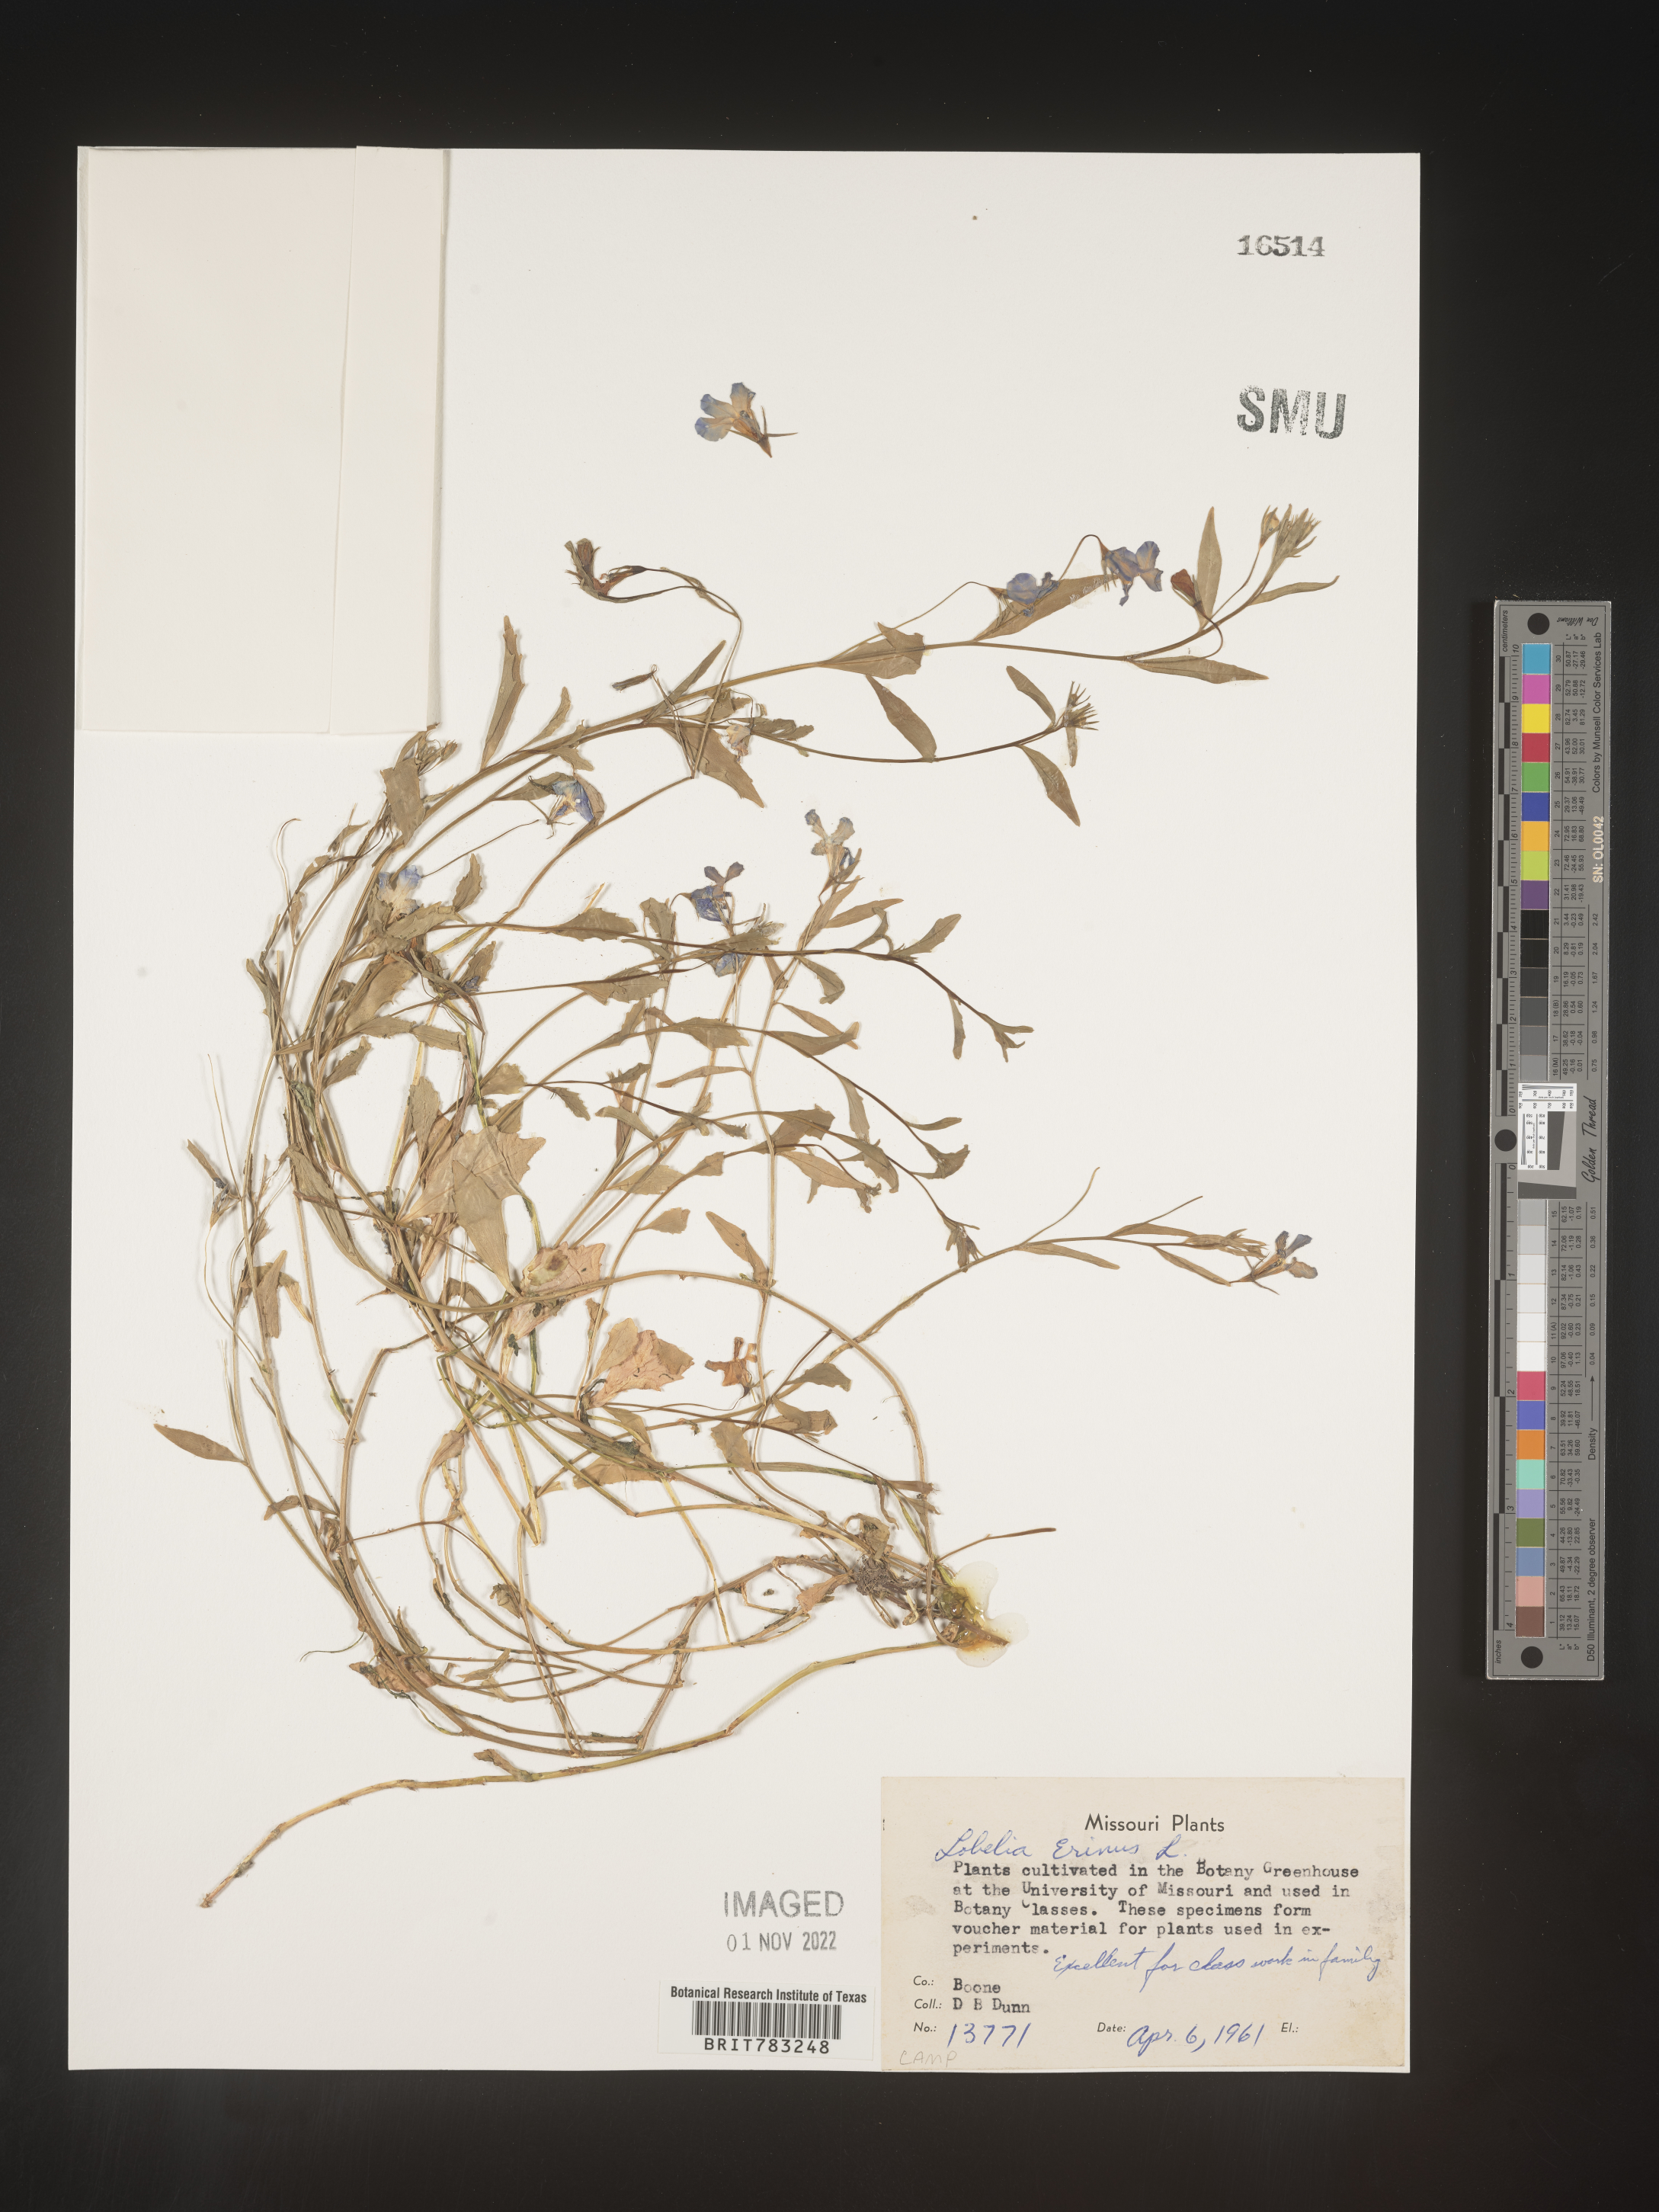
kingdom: Plantae
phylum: Tracheophyta
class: Magnoliopsida
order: Asterales
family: Campanulaceae
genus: Lobelia
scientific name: Lobelia
